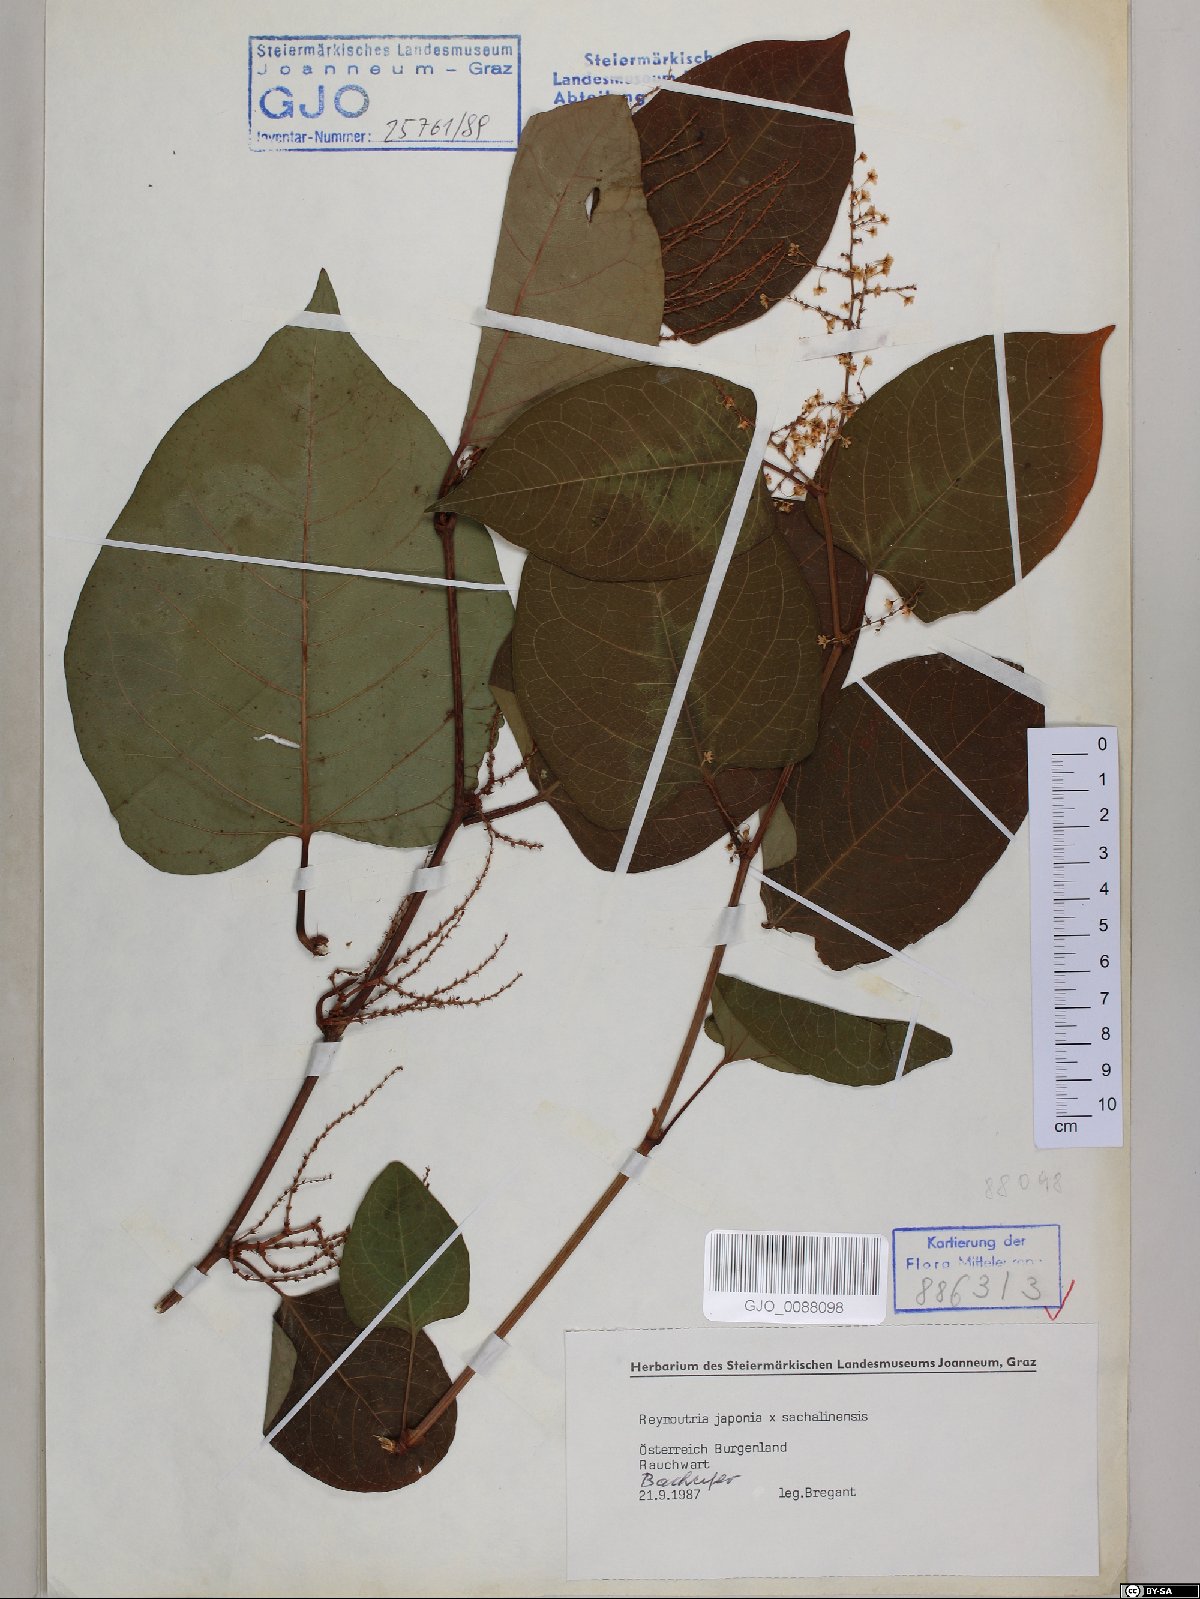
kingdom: Plantae
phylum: Tracheophyta
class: Magnoliopsida
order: Caryophyllales
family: Polygonaceae
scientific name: Polygonaceae
